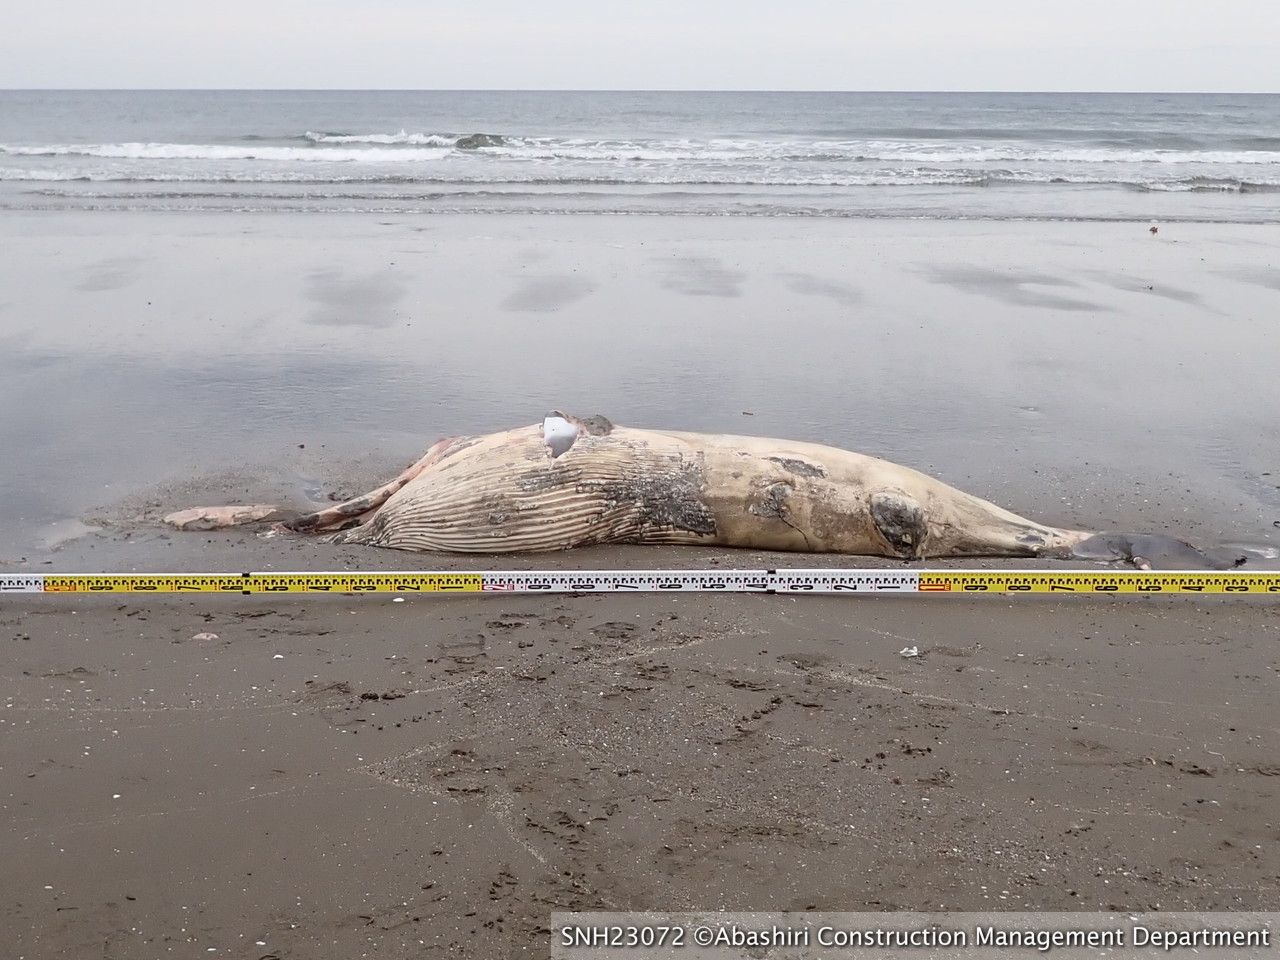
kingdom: Animalia
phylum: Chordata
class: Mammalia
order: Cetacea
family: Balaenopteridae
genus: Balaenoptera
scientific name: Balaenoptera acutorostrata
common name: Minke whale
